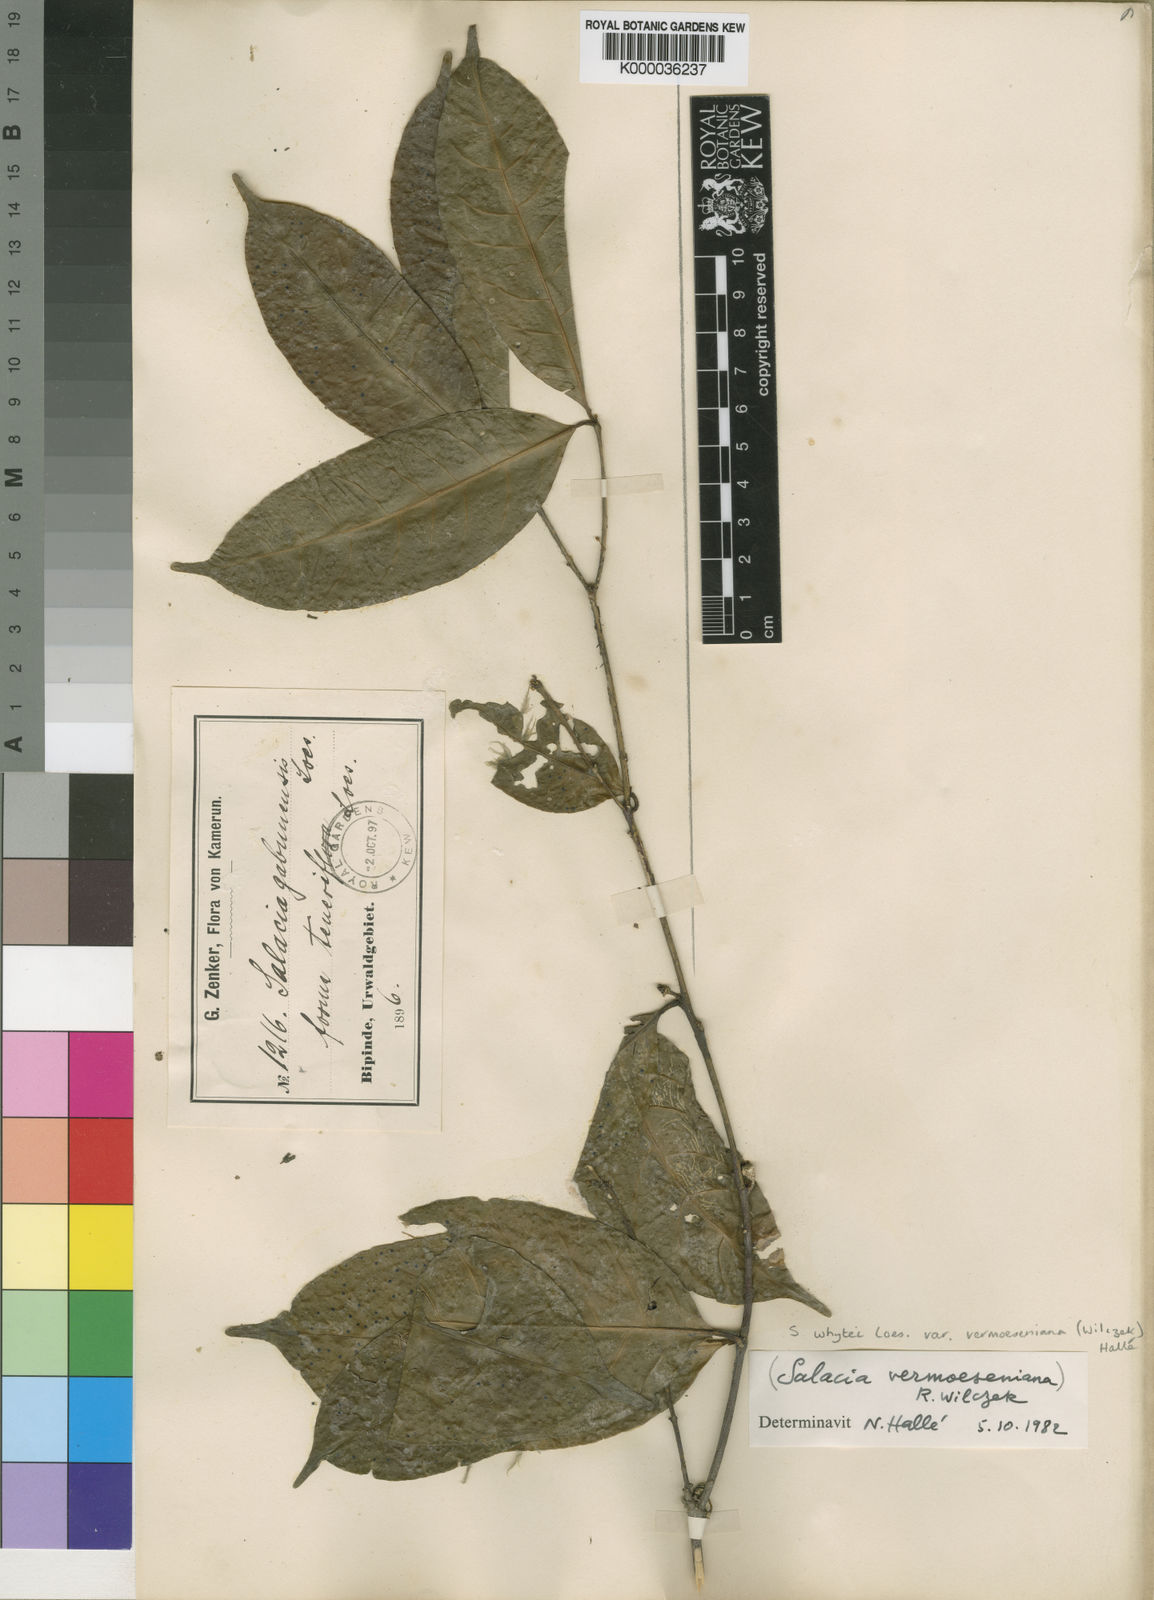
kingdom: Plantae
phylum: Tracheophyta
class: Magnoliopsida
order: Celastrales
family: Celastraceae
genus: Salacia
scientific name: Salacia whytei
